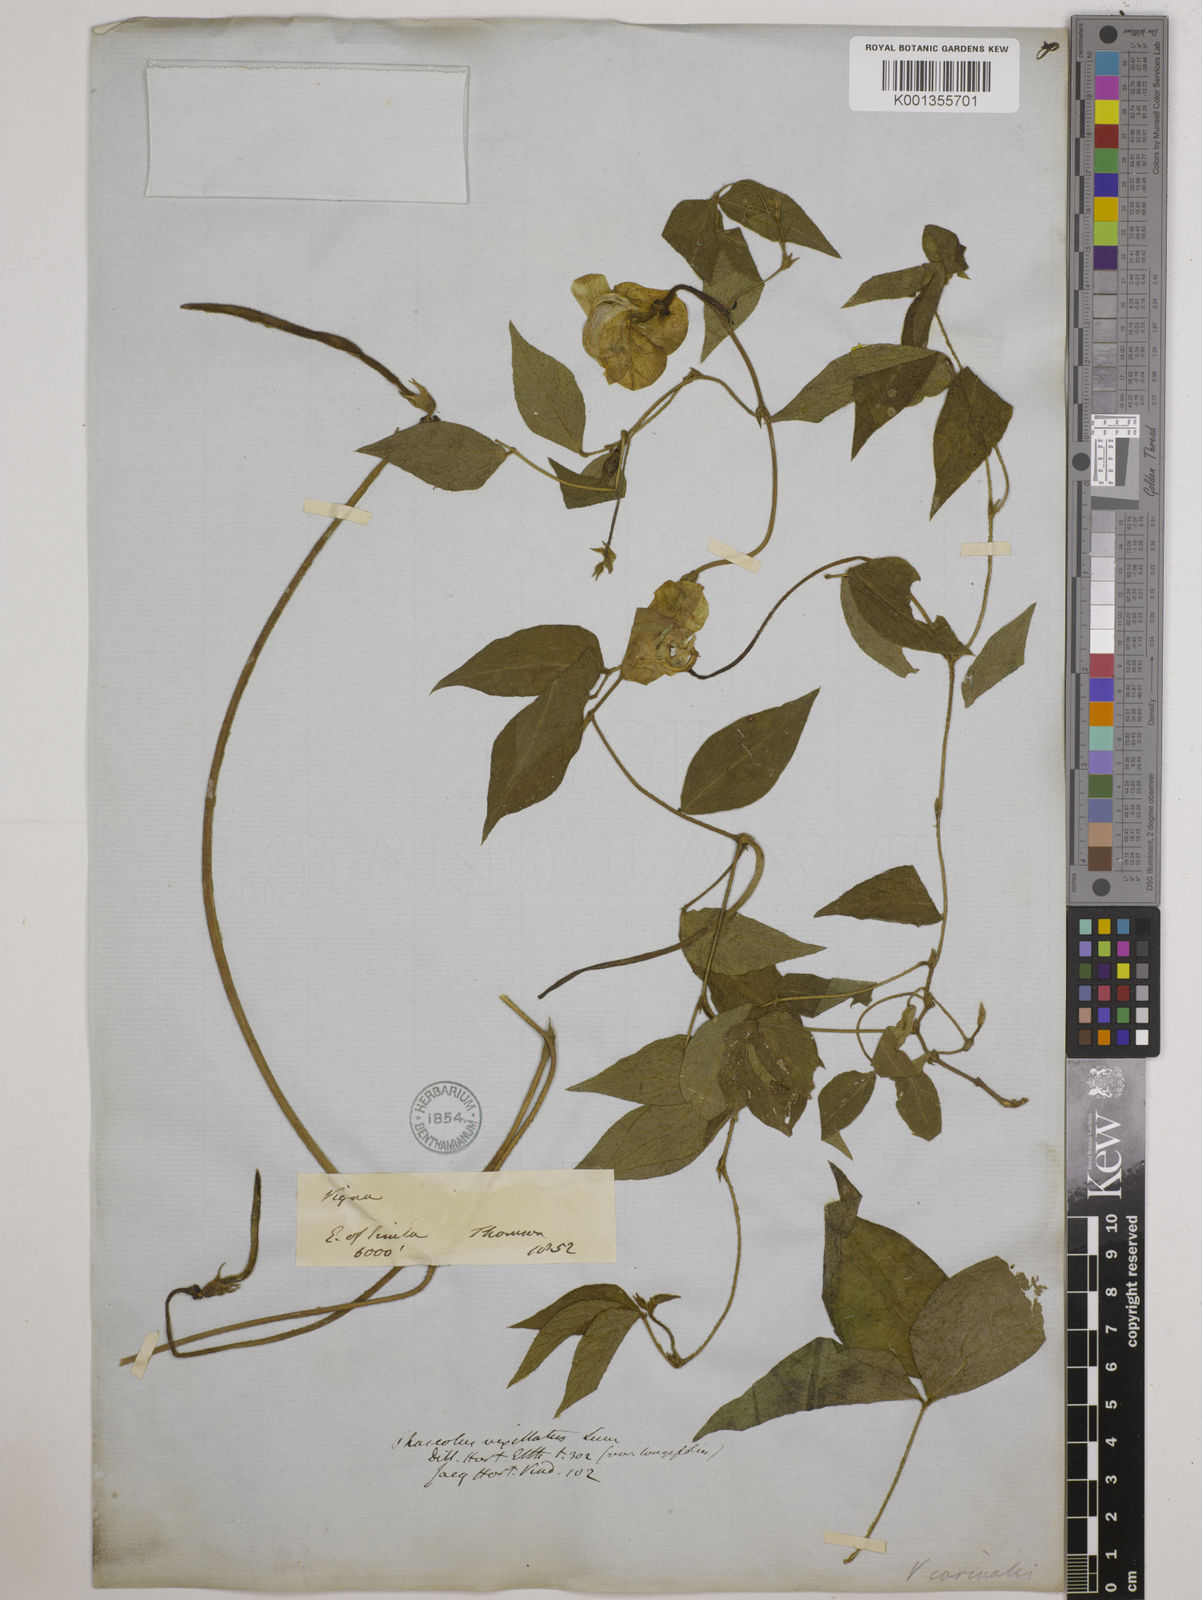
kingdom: Plantae
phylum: Tracheophyta
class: Magnoliopsida
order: Fabales
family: Fabaceae
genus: Vigna
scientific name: Vigna vexillata
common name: Zombi pea
